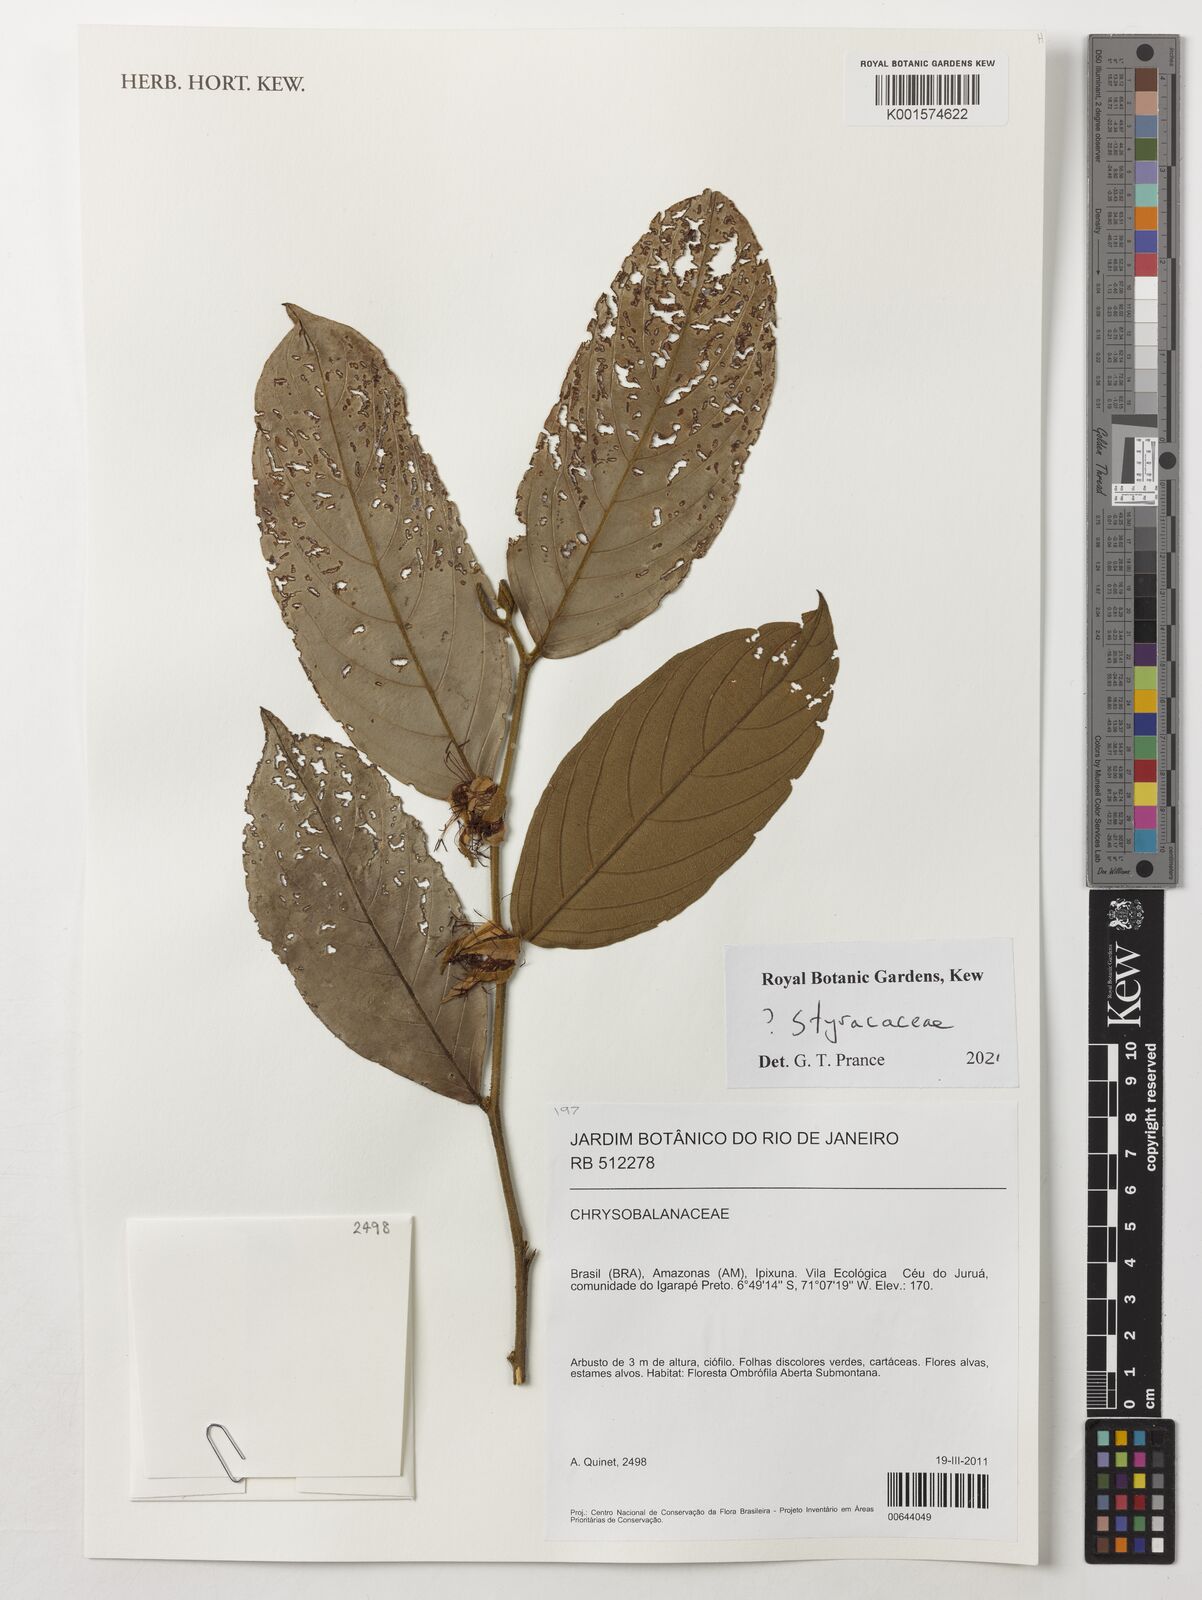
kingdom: Plantae
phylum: Tracheophyta
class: Magnoliopsida
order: Ericales
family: Styracaceae
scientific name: Styracaceae
